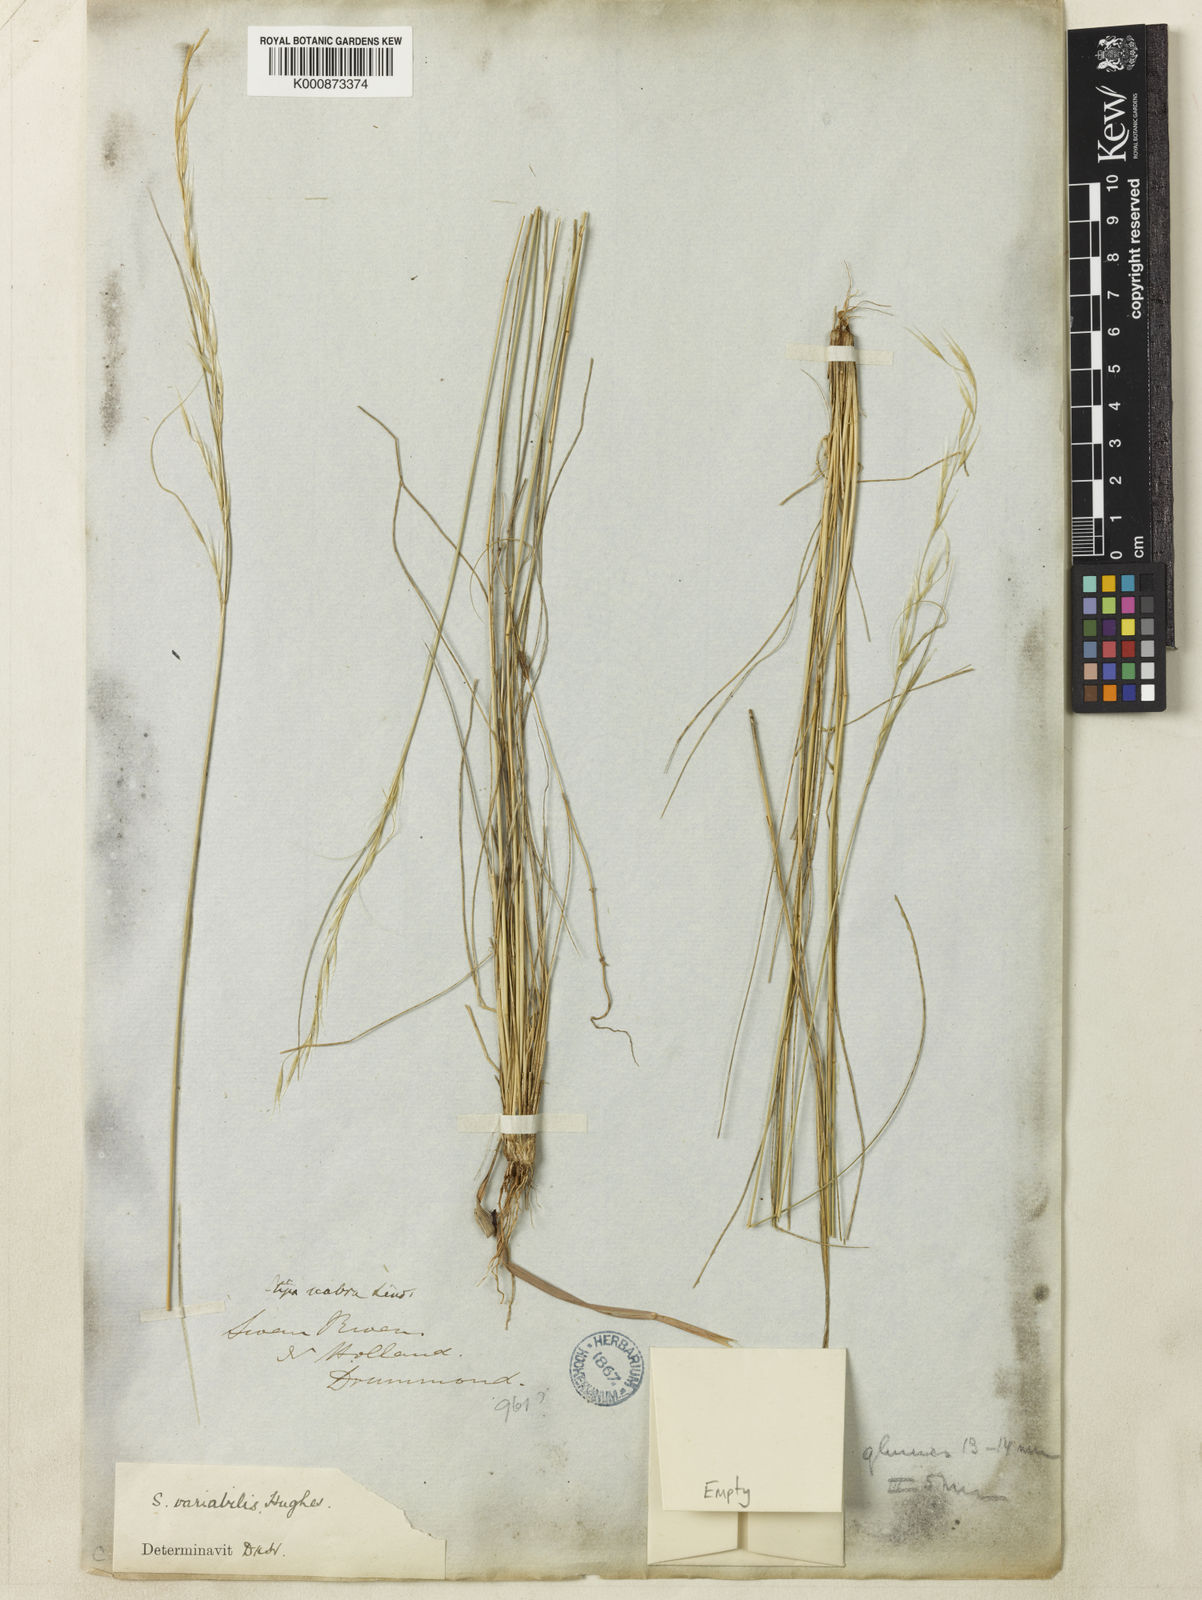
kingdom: Plantae
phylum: Tracheophyta
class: Liliopsida
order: Poales
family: Poaceae
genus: Austrostipa
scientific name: Austrostipa variabilis
